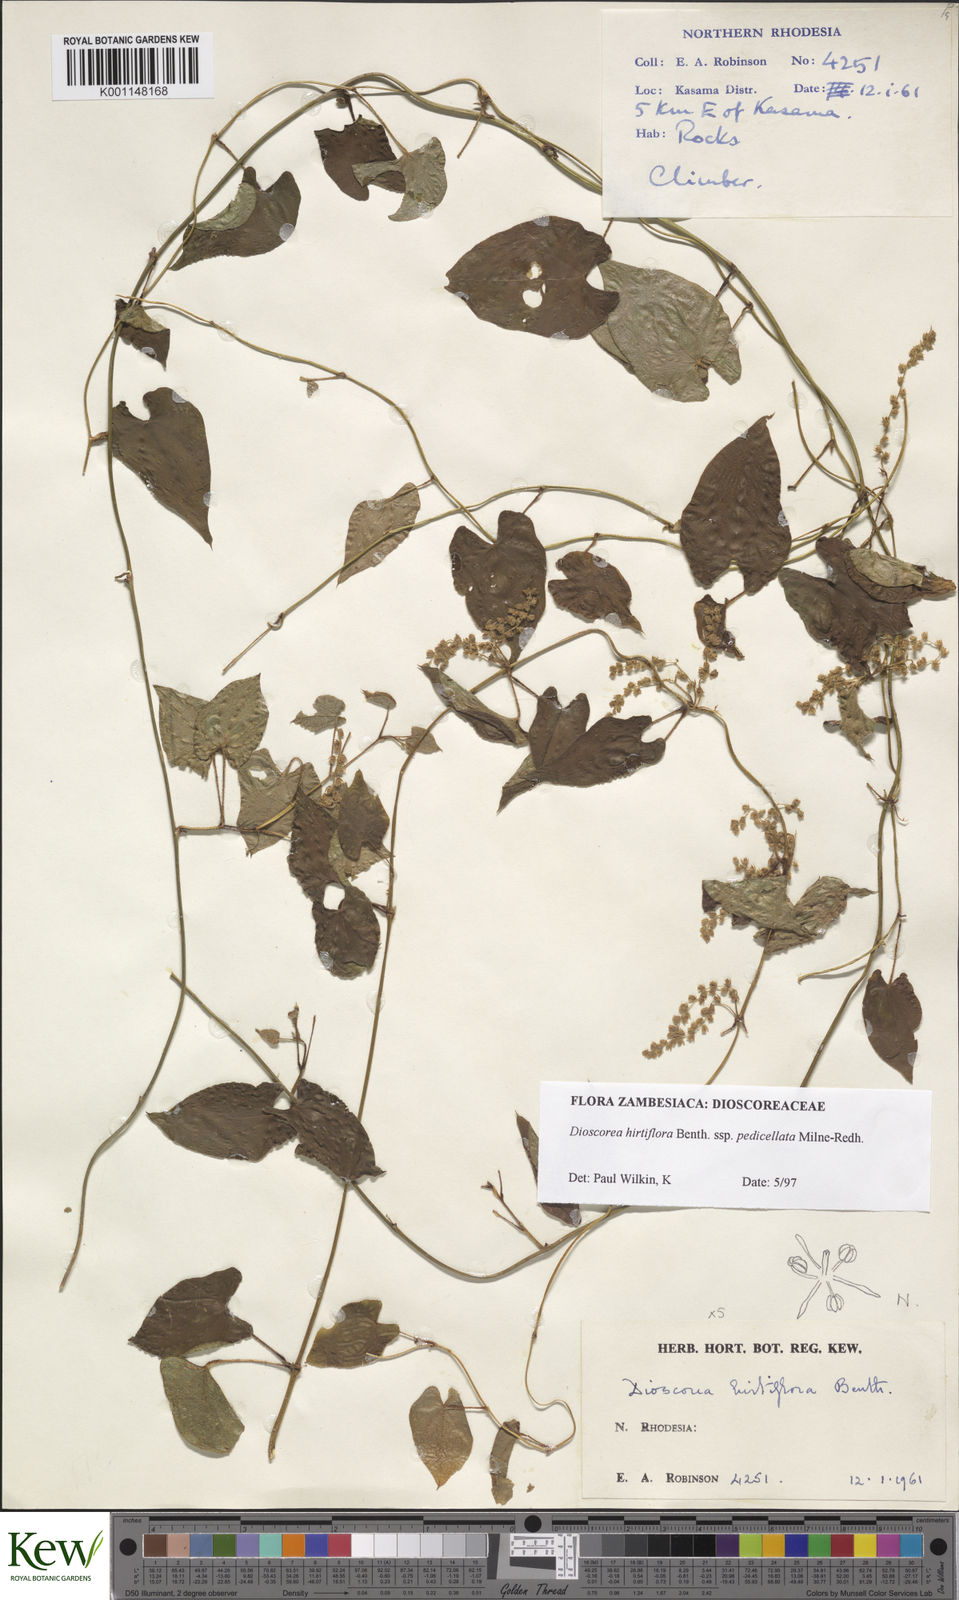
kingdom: Plantae
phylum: Tracheophyta
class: Liliopsida
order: Dioscoreales
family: Dioscoreaceae
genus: Dioscorea
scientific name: Dioscorea hirtiflora
